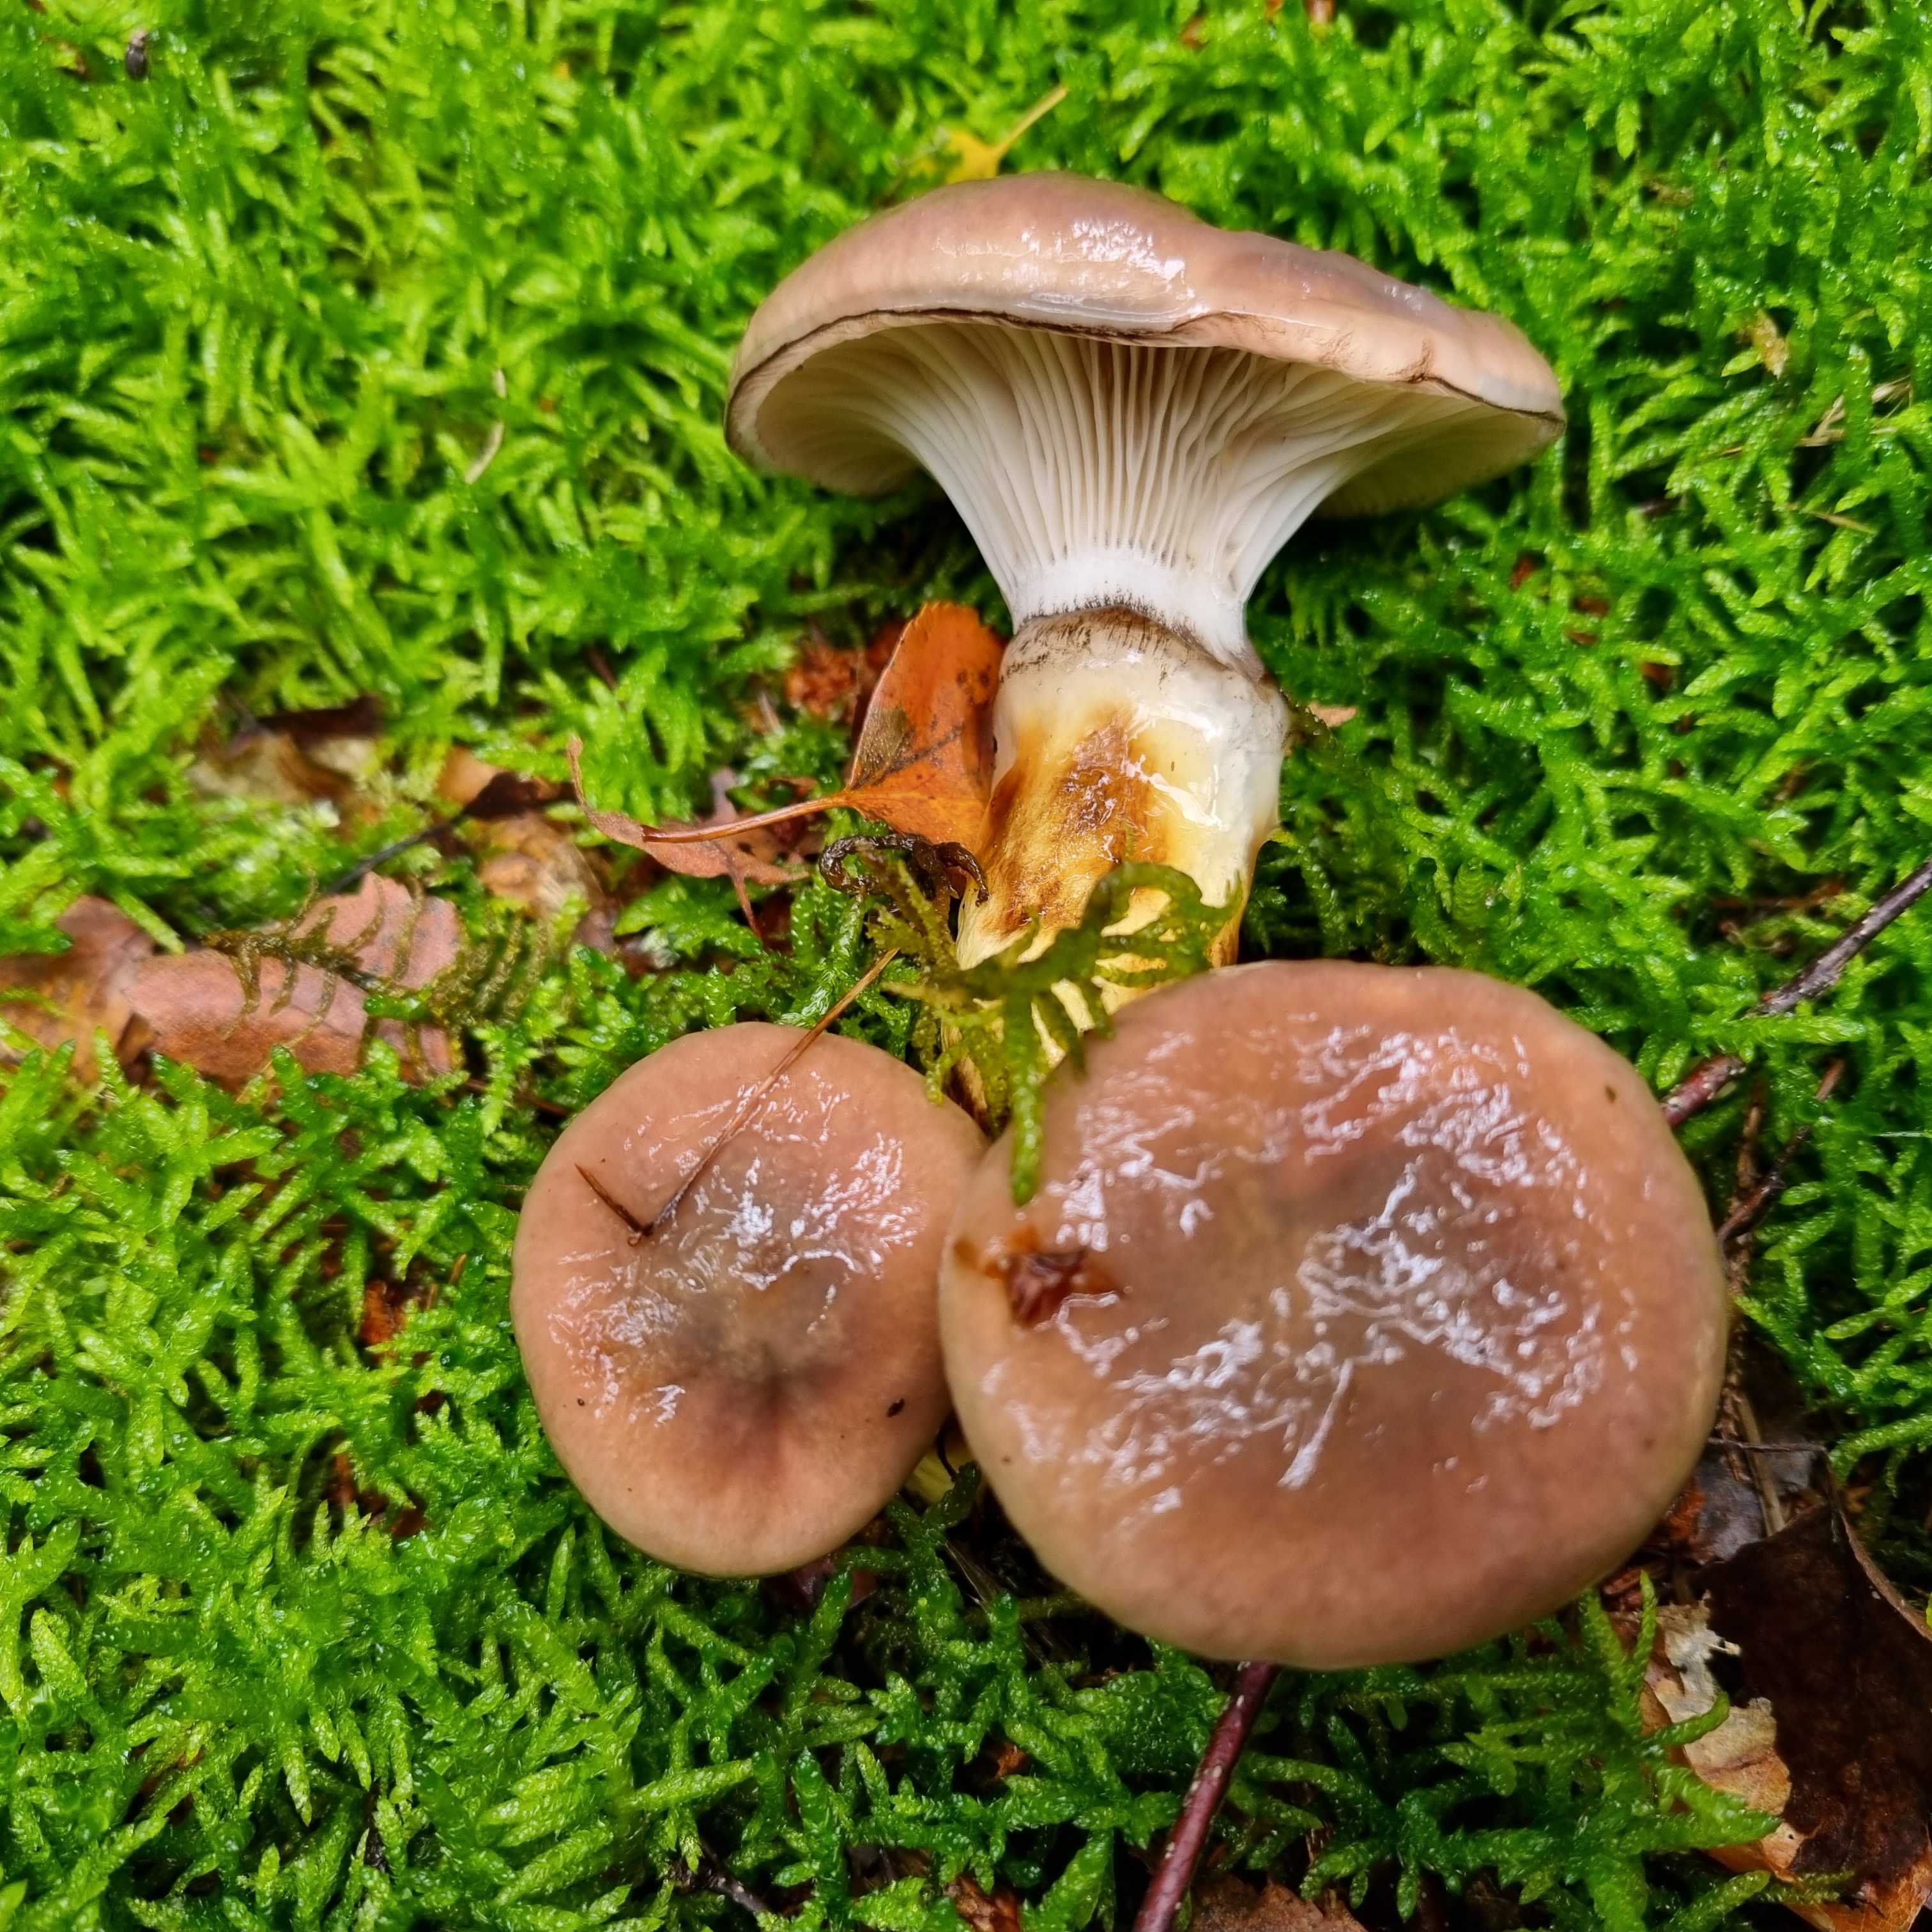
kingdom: Fungi
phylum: Basidiomycota
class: Agaricomycetes
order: Boletales
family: Gomphidiaceae
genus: Gomphidius
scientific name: Gomphidius glutinosus
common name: grå slimslør
